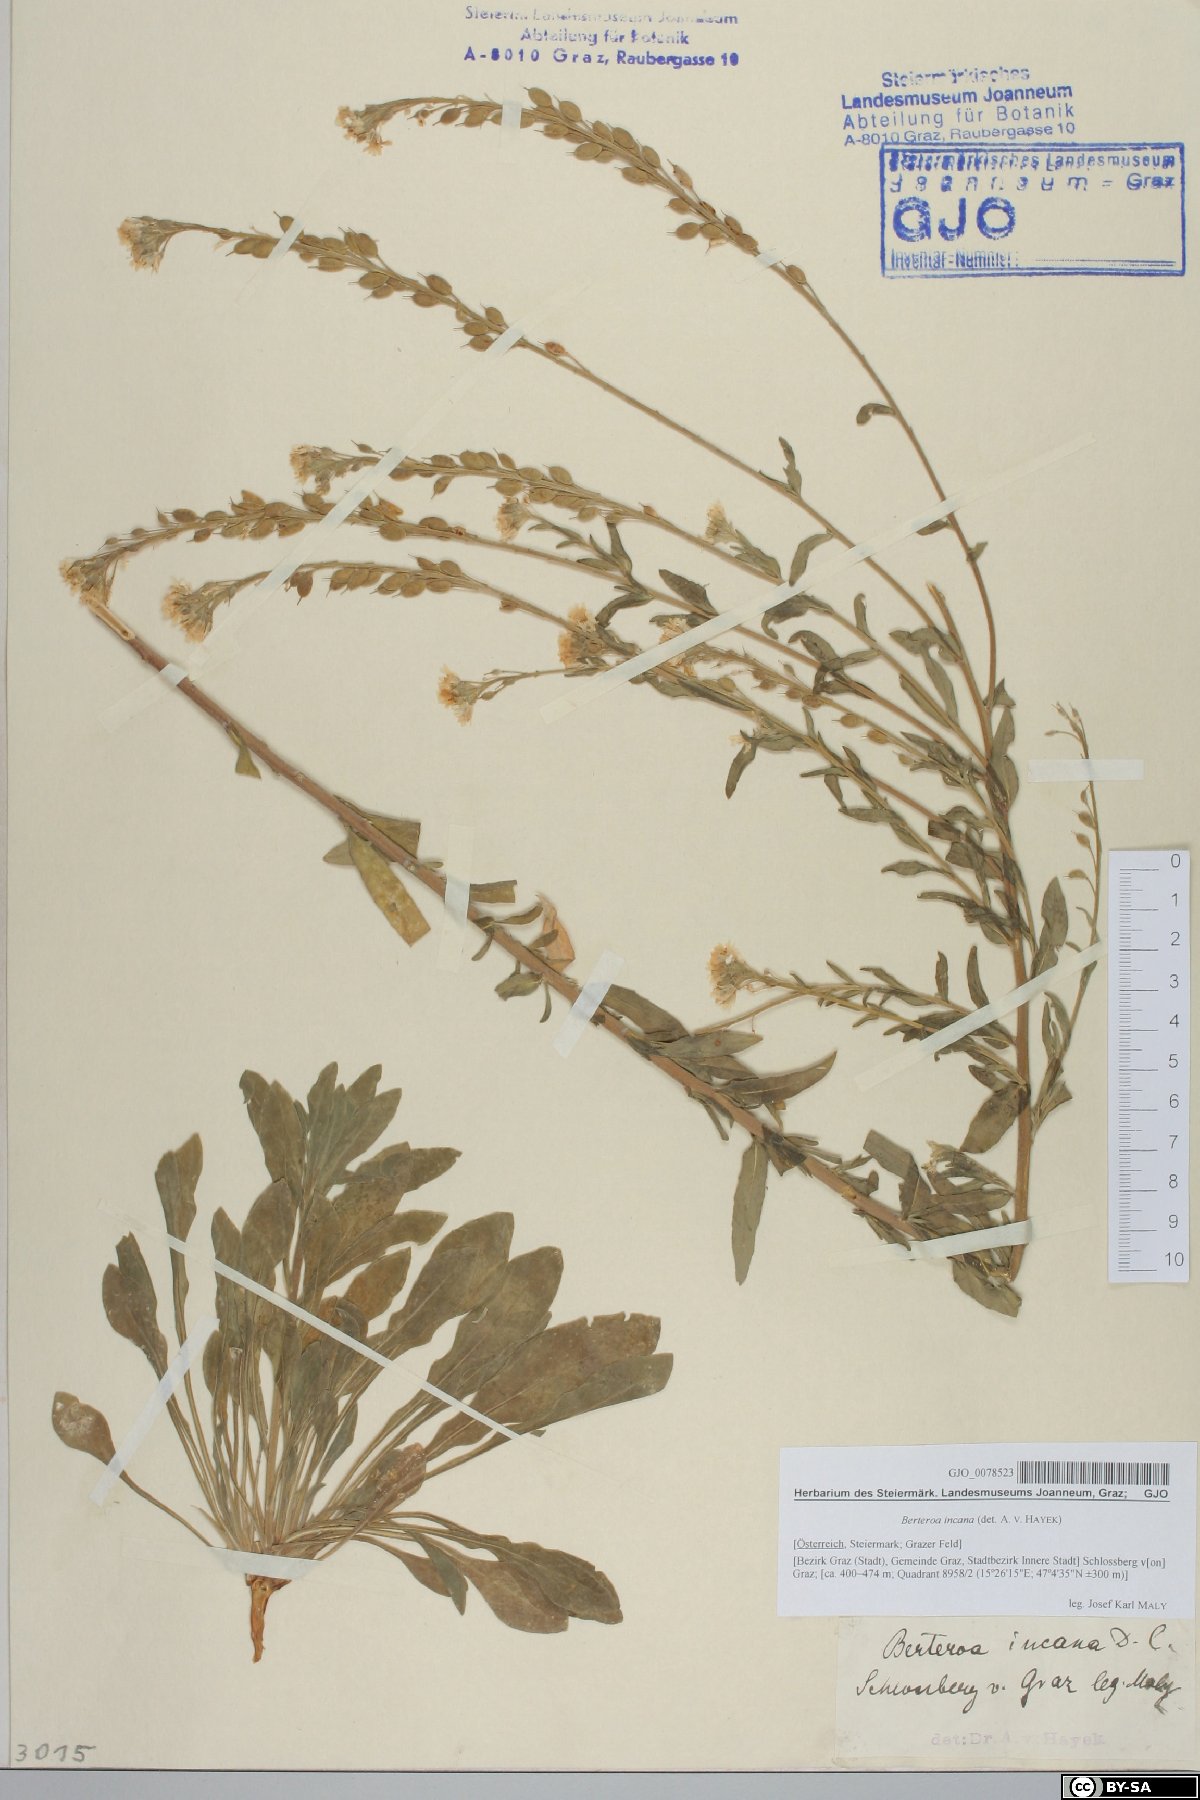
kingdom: Plantae
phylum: Tracheophyta
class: Magnoliopsida
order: Brassicales
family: Brassicaceae
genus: Berteroa
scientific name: Berteroa incana
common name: Hoary alison
